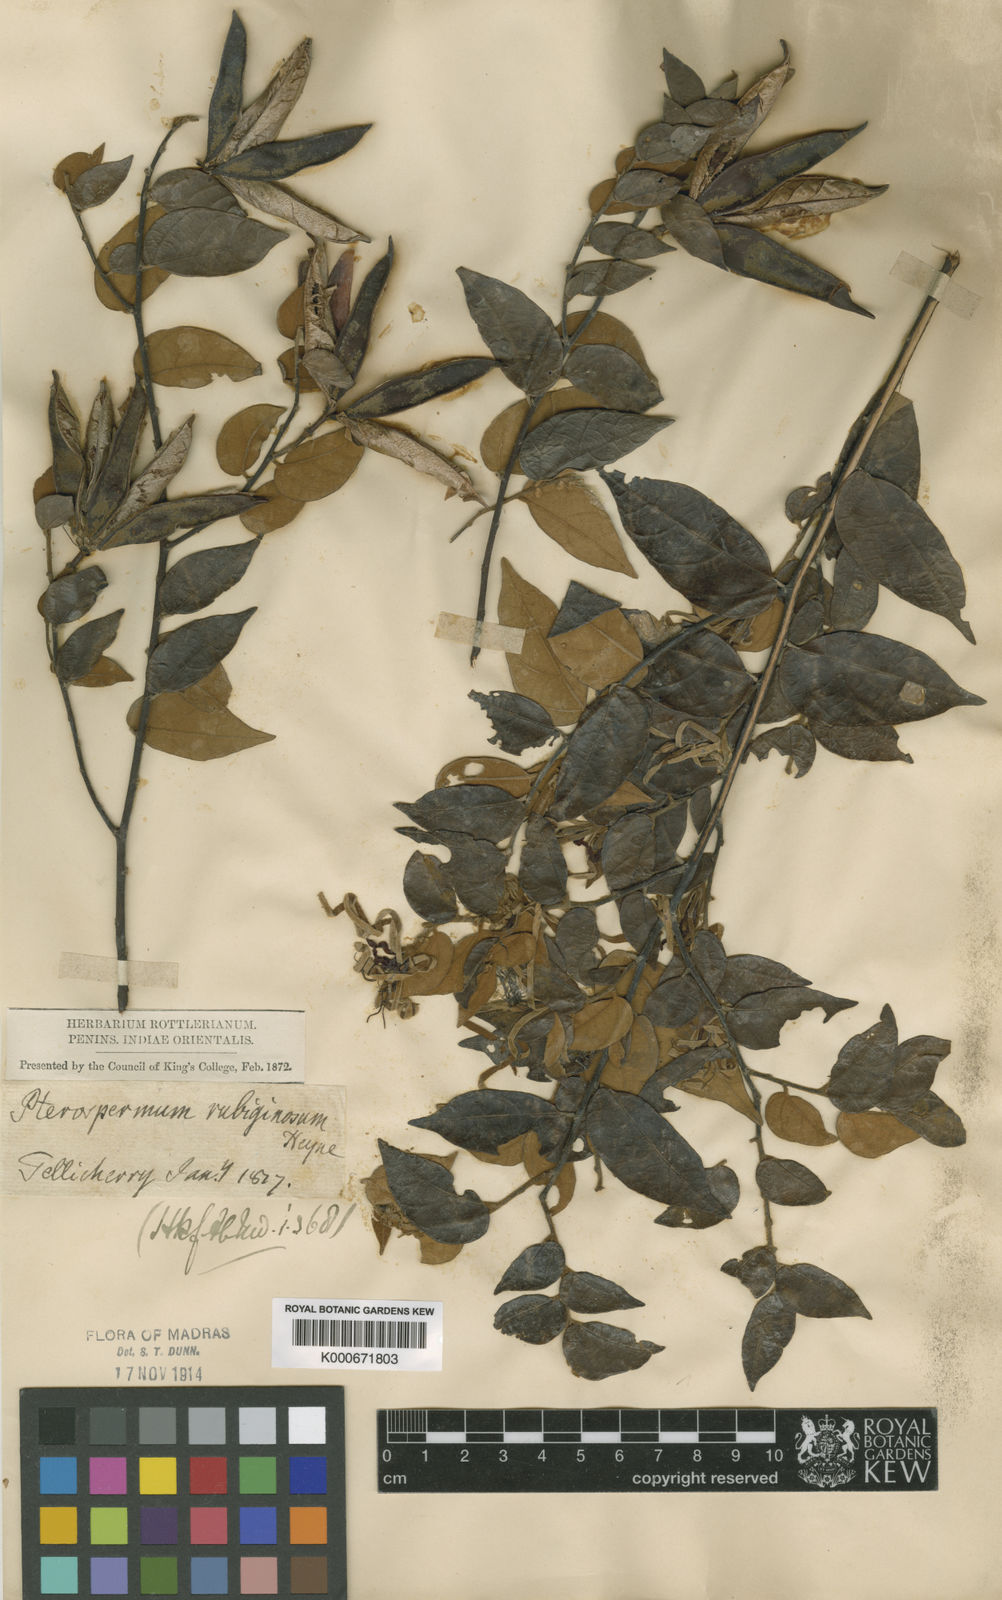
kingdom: Plantae
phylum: Tracheophyta
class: Magnoliopsida
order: Malvales
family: Malvaceae
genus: Pterospermum
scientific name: Pterospermum
